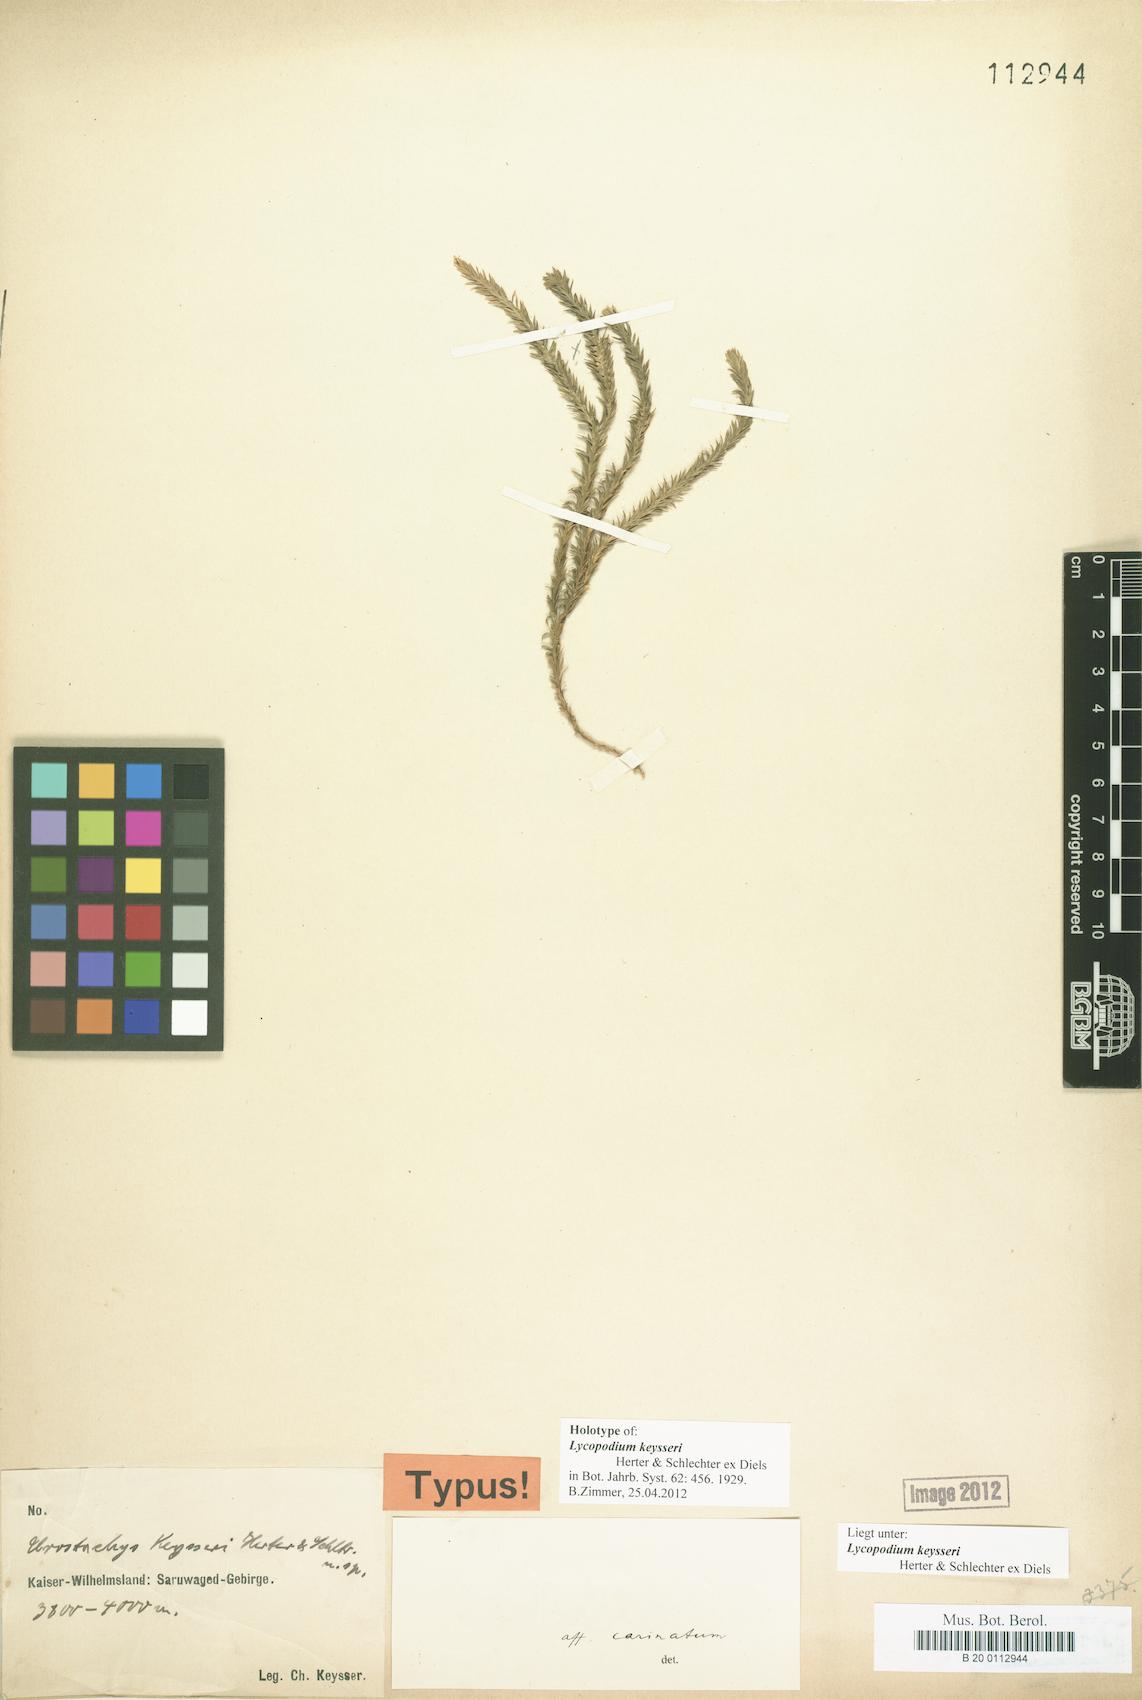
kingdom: Plantae
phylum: Tracheophyta
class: Lycopodiopsida
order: Lycopodiales
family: Lycopodiaceae
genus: Phlegmariurus
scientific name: Phlegmariurus macgregorii
